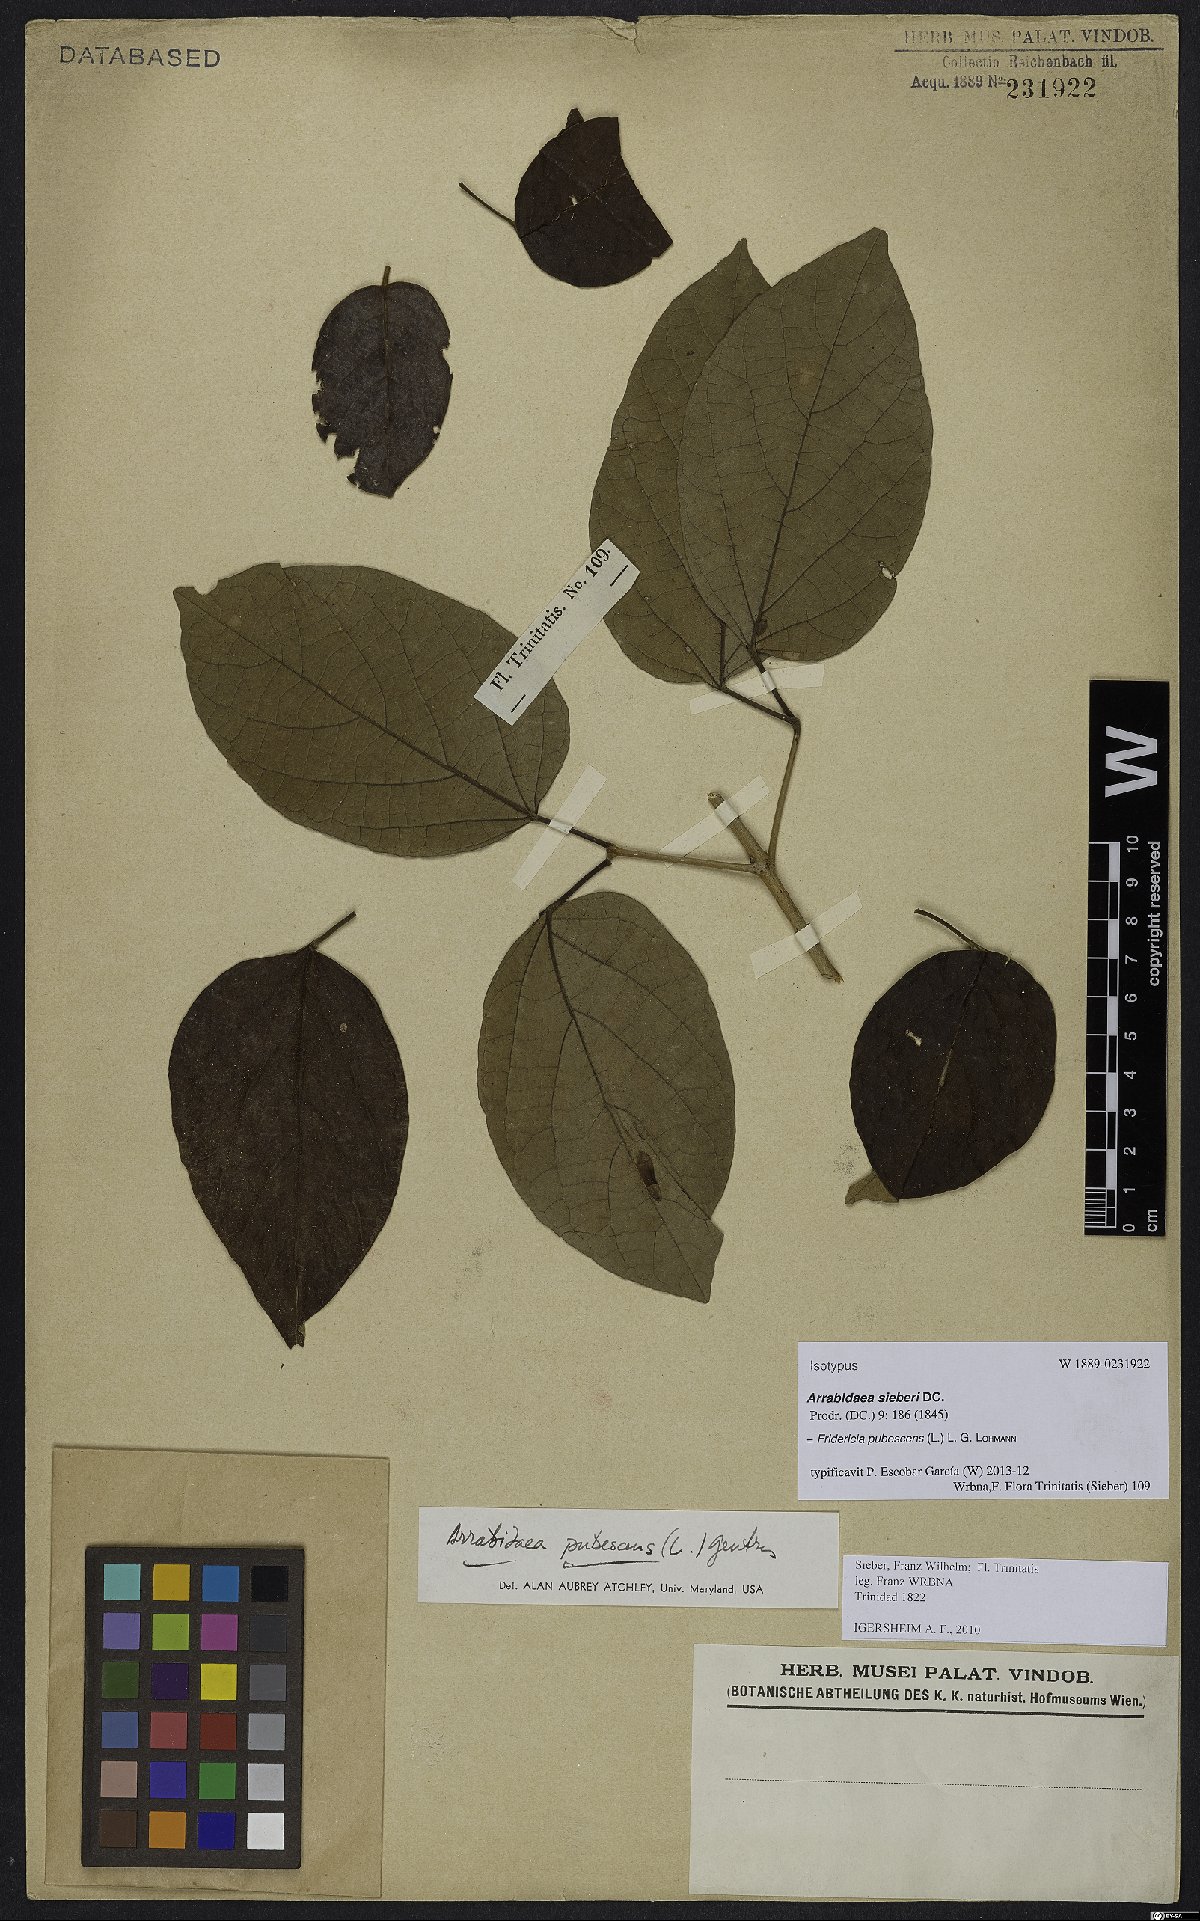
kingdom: Plantae
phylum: Tracheophyta
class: Magnoliopsida
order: Lamiales
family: Bignoniaceae
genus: Fridericia
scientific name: Fridericia pubescens
